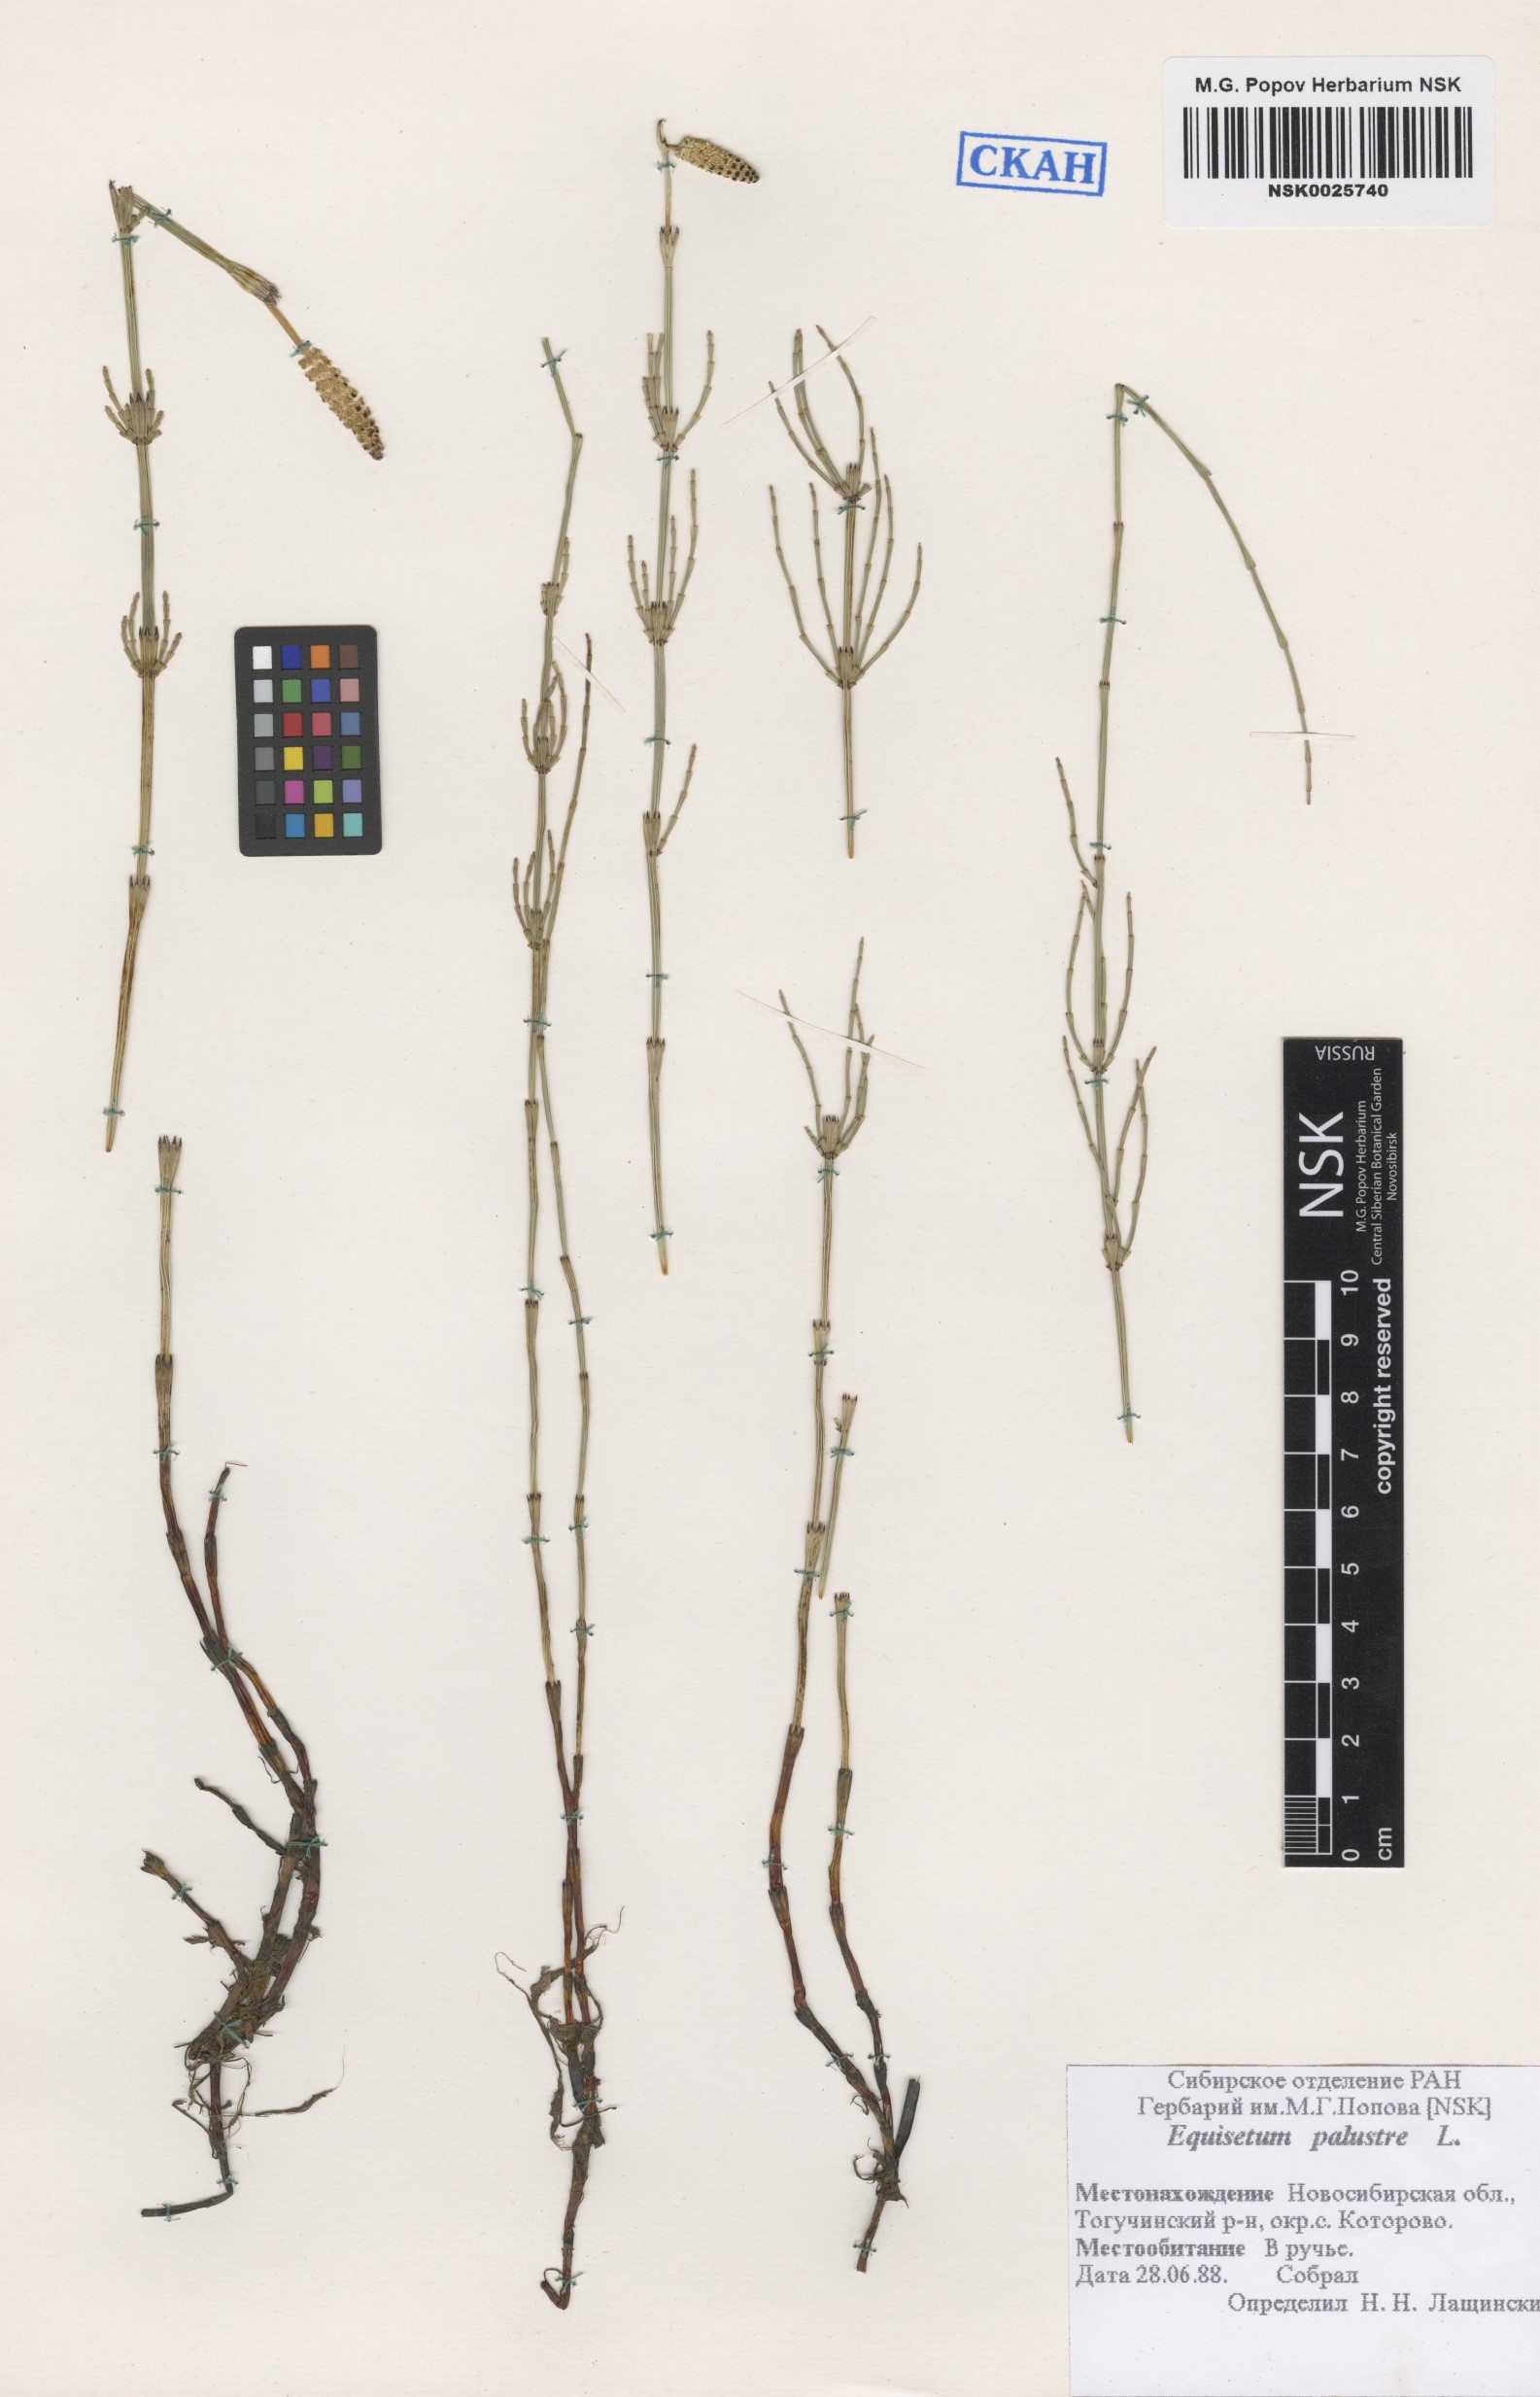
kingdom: Plantae
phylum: Tracheophyta
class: Polypodiopsida
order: Equisetales
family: Equisetaceae
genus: Equisetum
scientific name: Equisetum palustre
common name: Marsh horsetail
